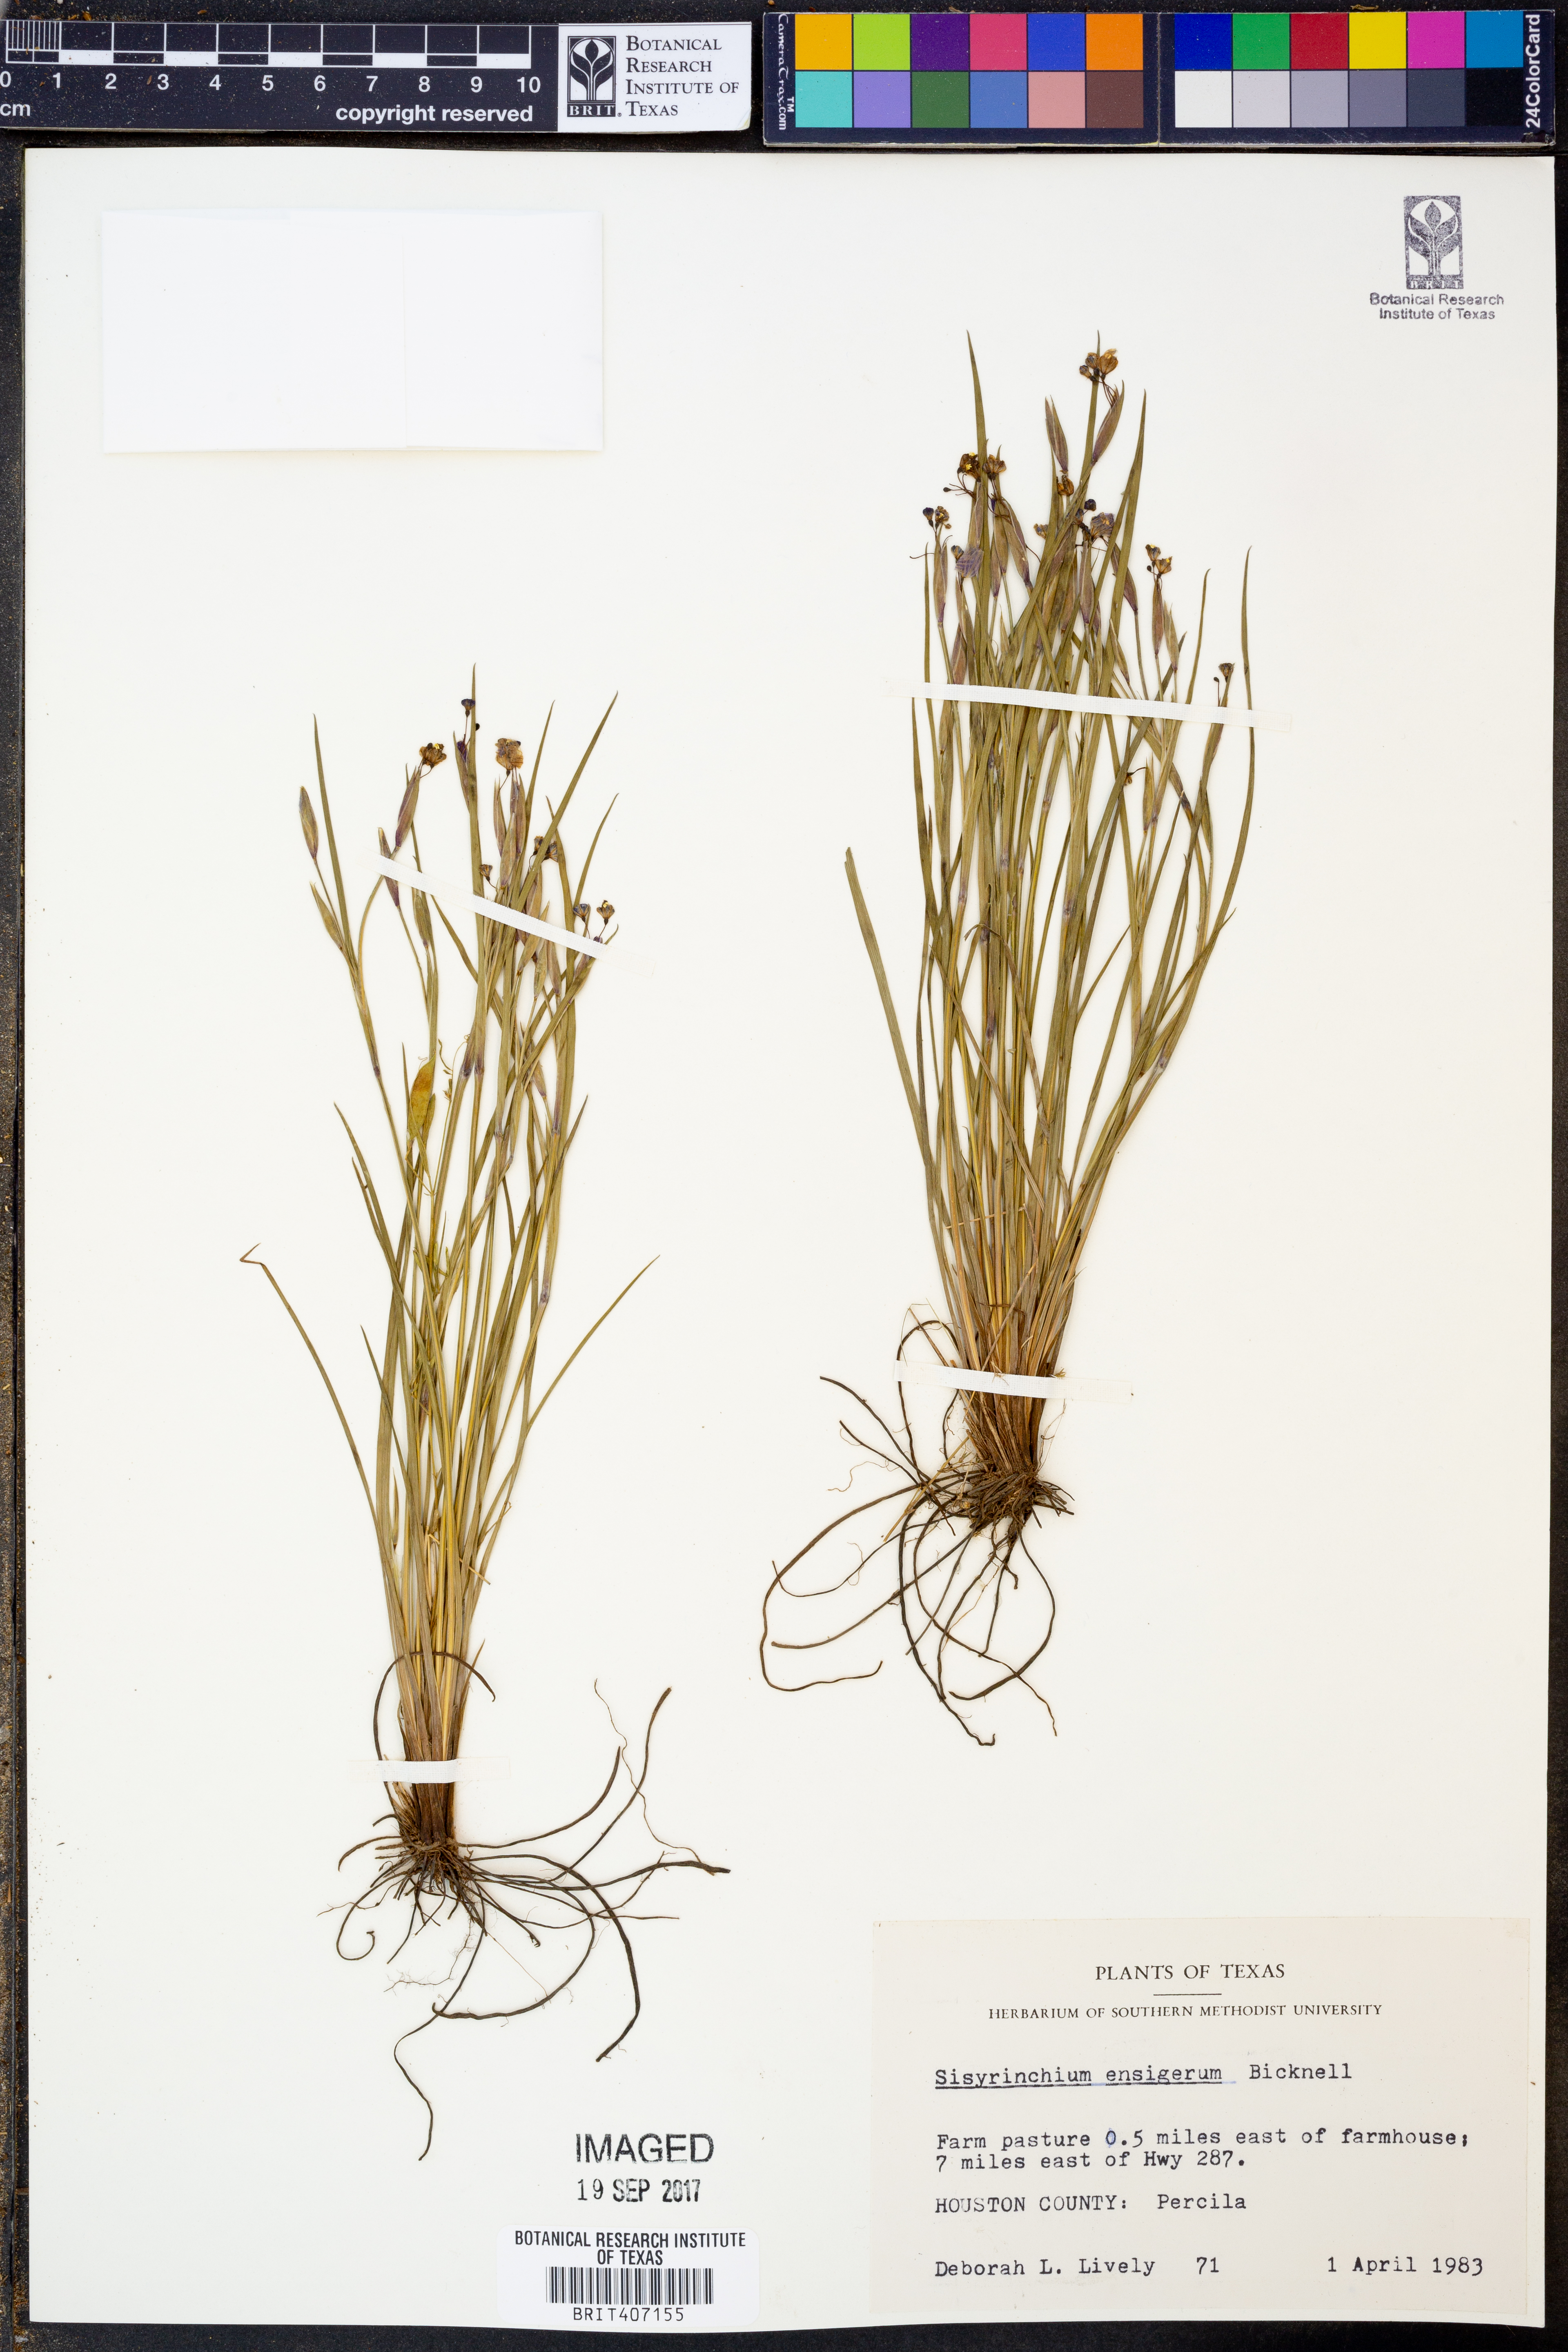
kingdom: Plantae
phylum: Tracheophyta
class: Liliopsida
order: Asparagales
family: Iridaceae
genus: Sisyrinchium
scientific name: Sisyrinchium ensigerum
